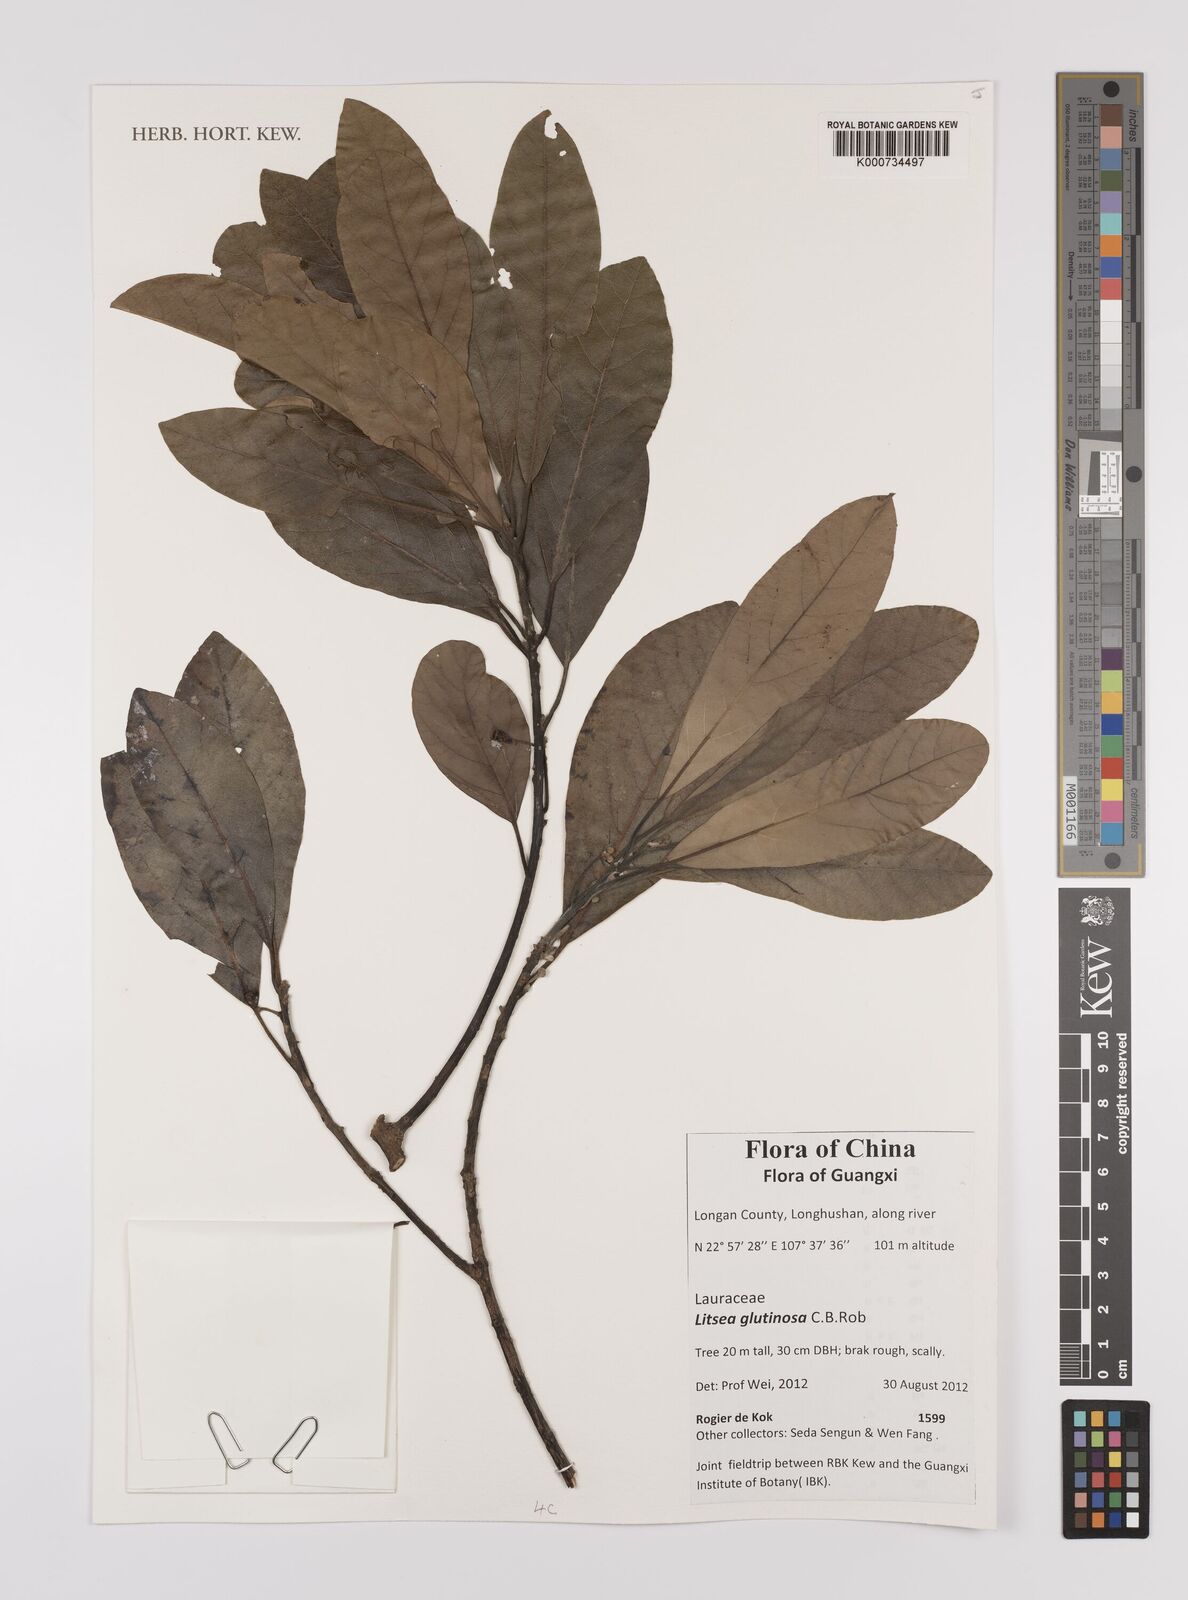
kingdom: Plantae
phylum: Tracheophyta
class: Magnoliopsida
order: Laurales
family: Lauraceae
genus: Litsea
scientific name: Litsea glutinosa
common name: Indian-laurel
